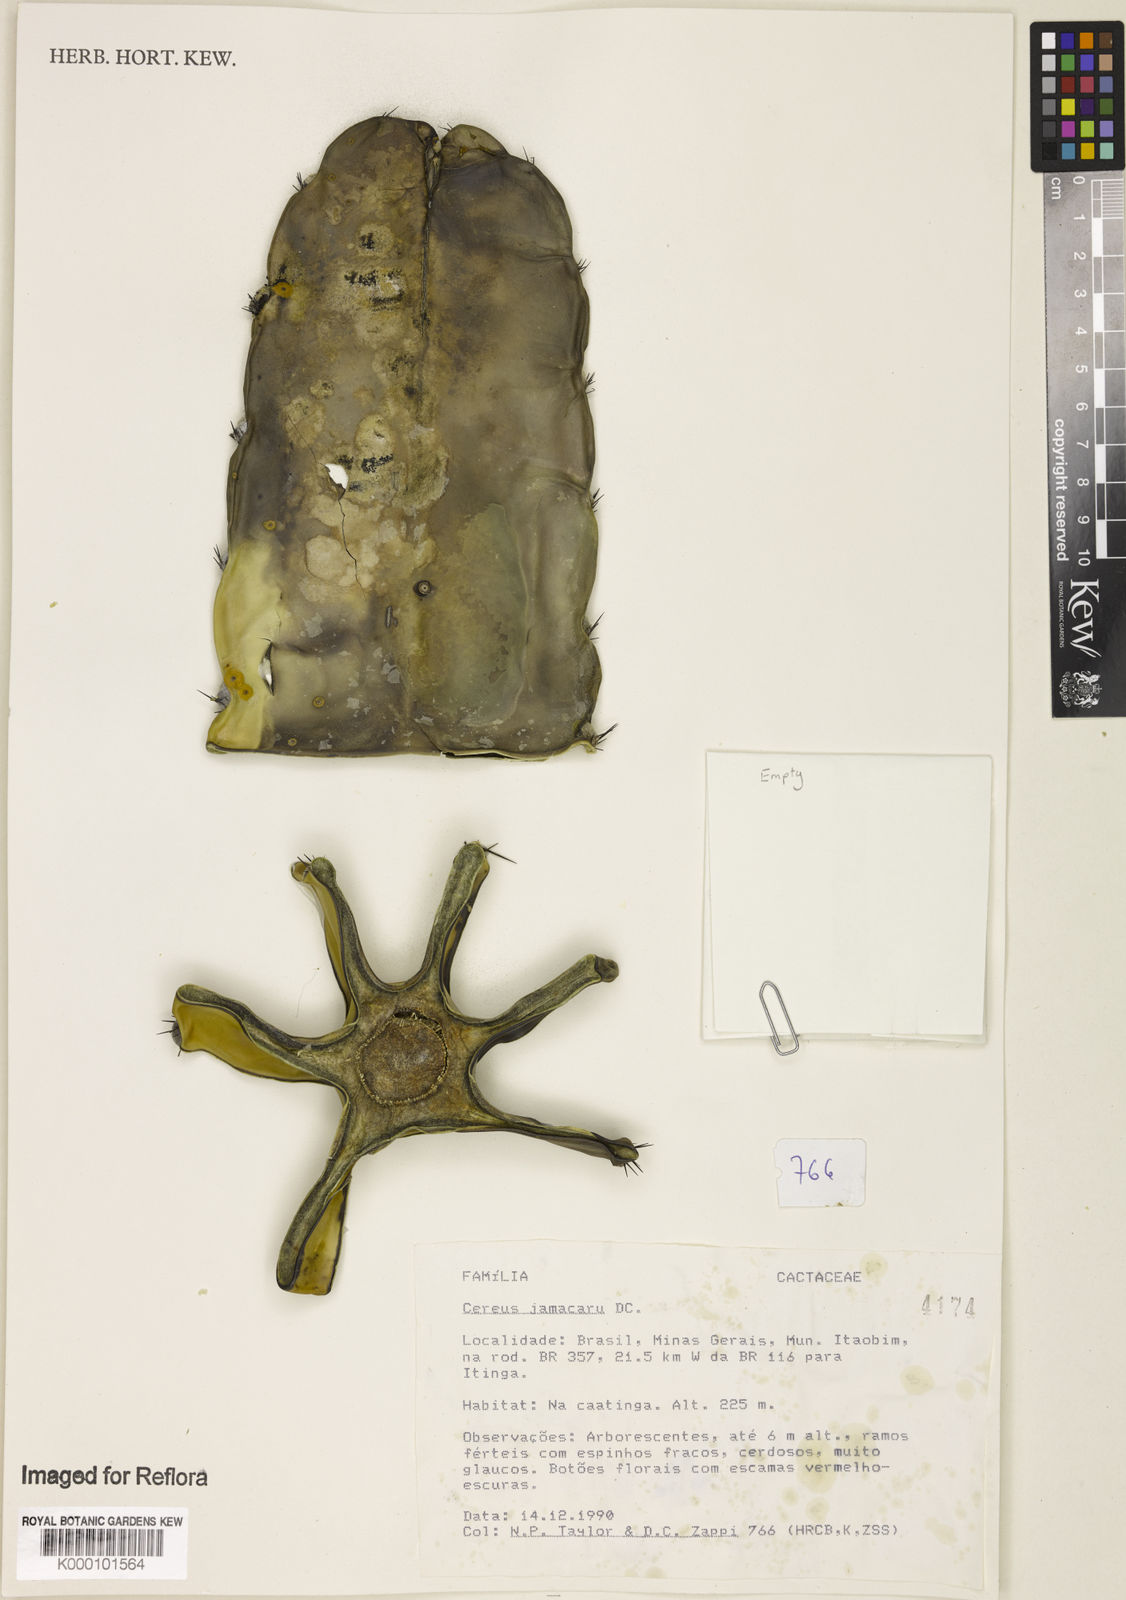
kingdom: Plantae
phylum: Tracheophyta
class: Magnoliopsida
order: Caryophyllales
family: Cactaceae
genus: Cereus
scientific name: Cereus jamacaru
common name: Queen-of-the-night
